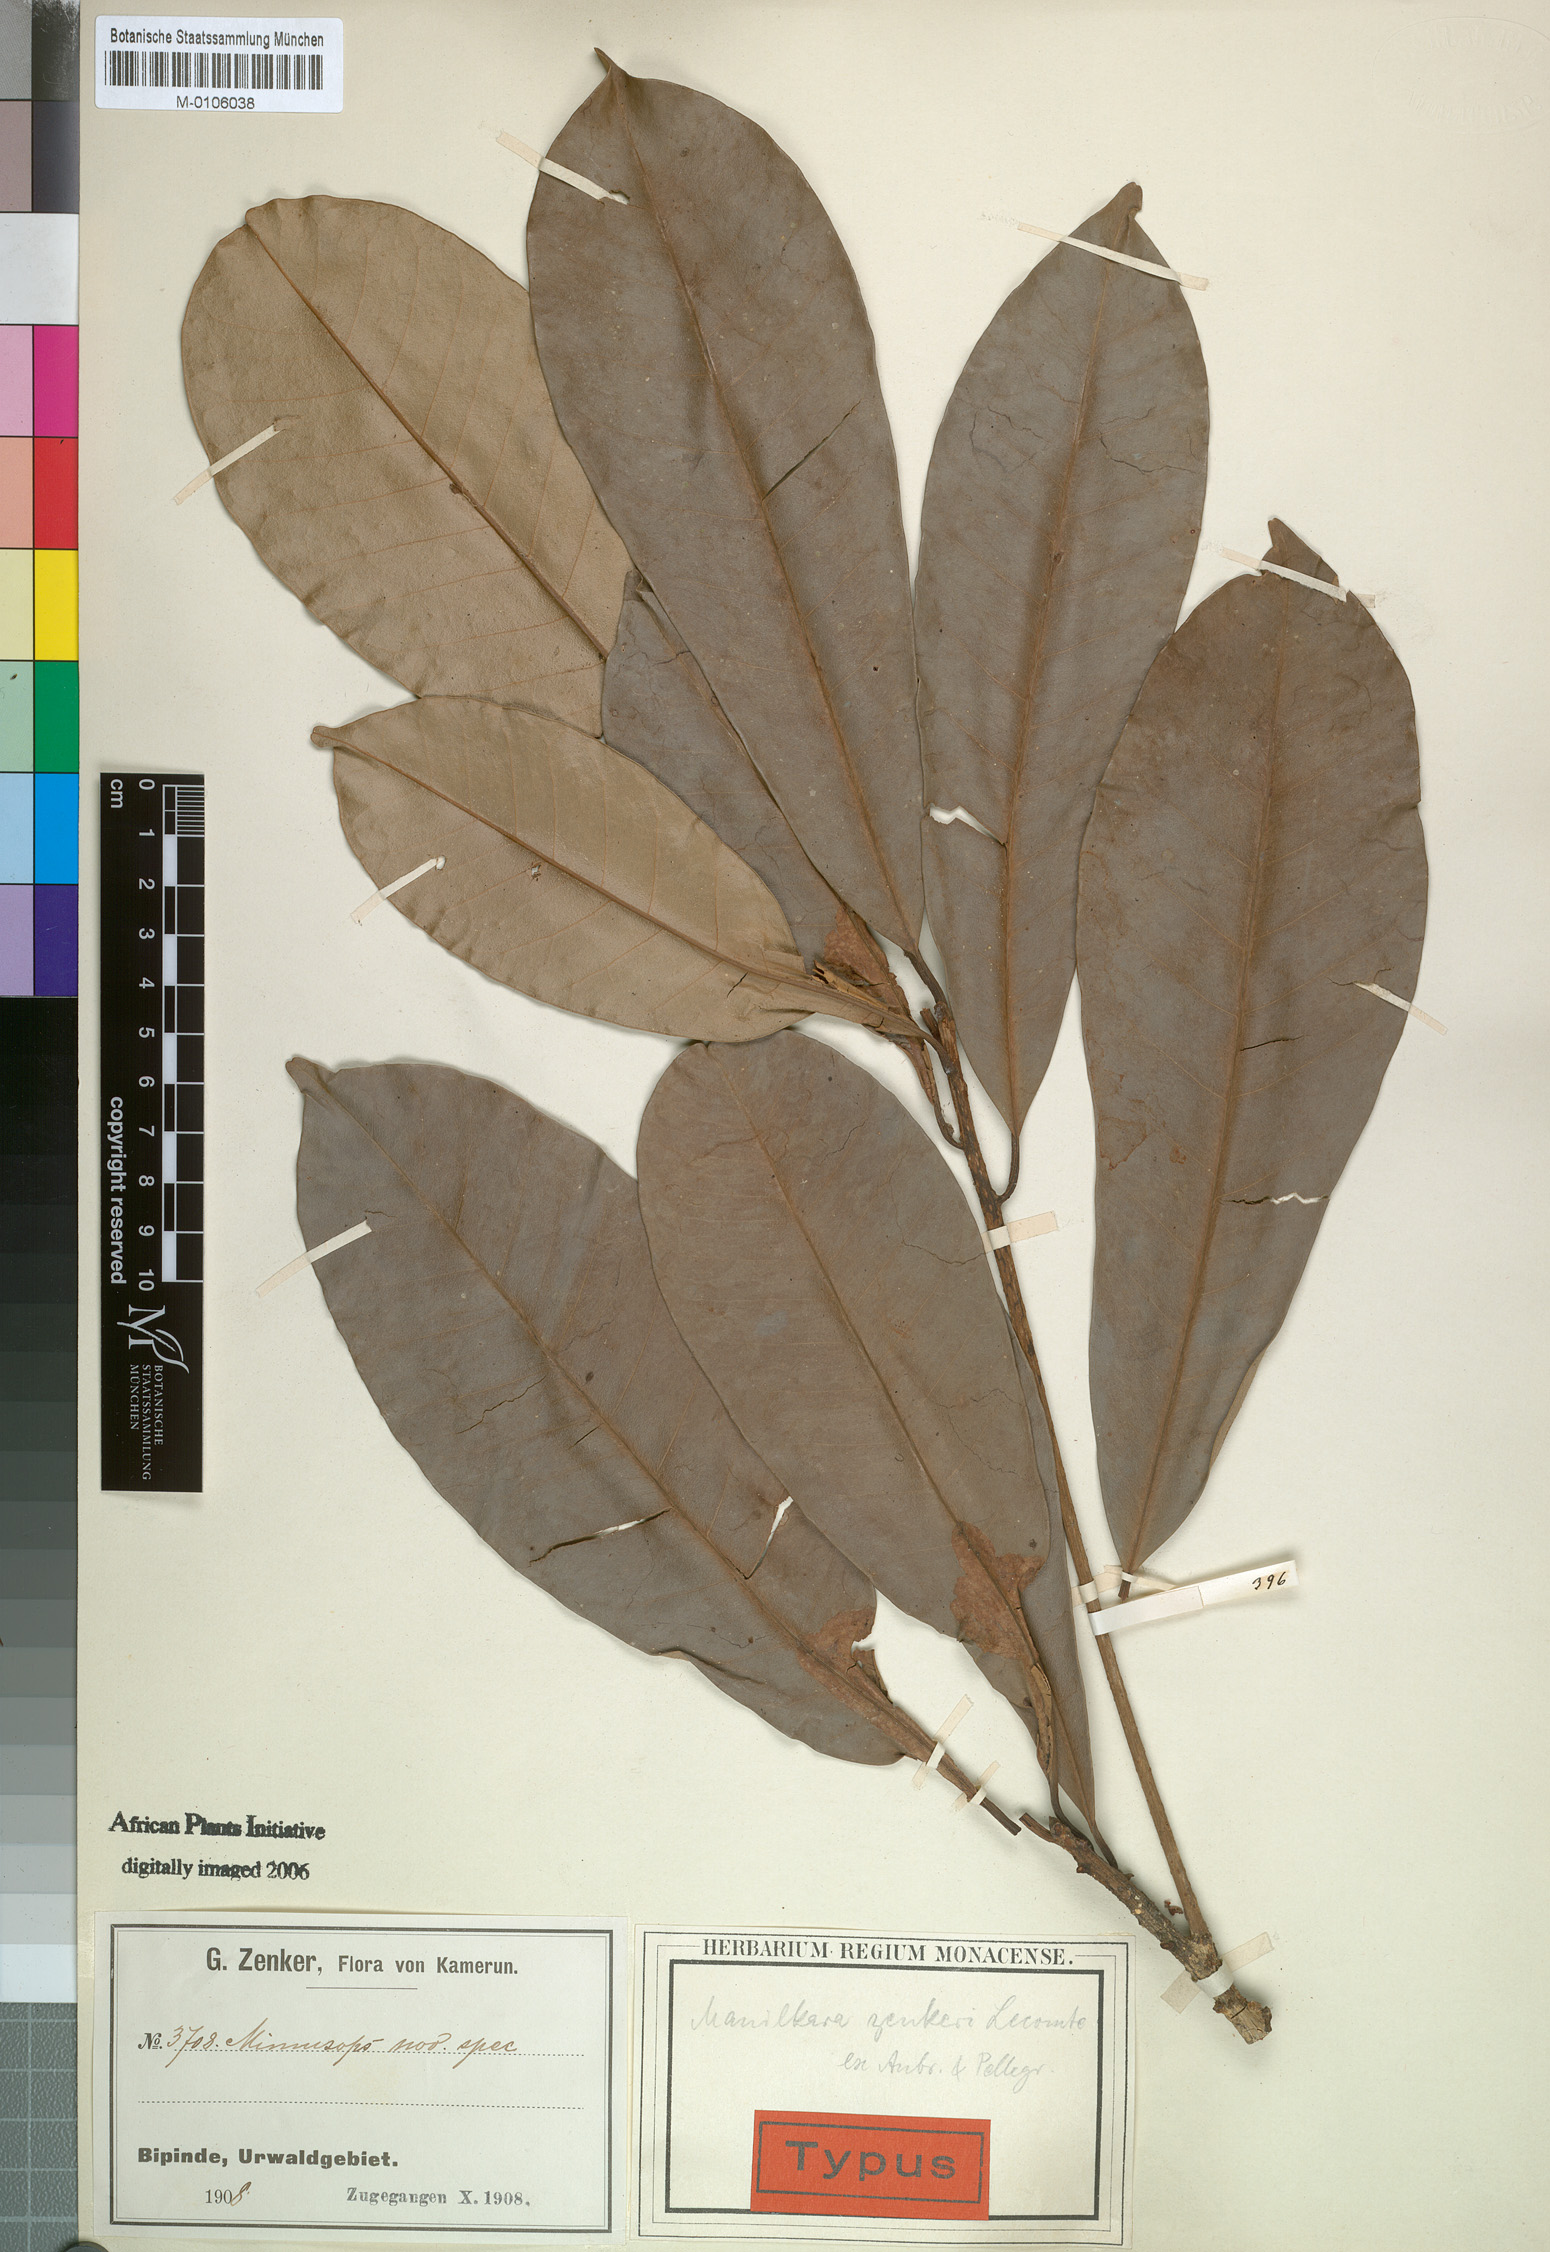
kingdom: Plantae
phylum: Tracheophyta
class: Magnoliopsida
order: Ericales
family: Sapotaceae
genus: Manilkara
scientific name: Manilkara zenkeri
